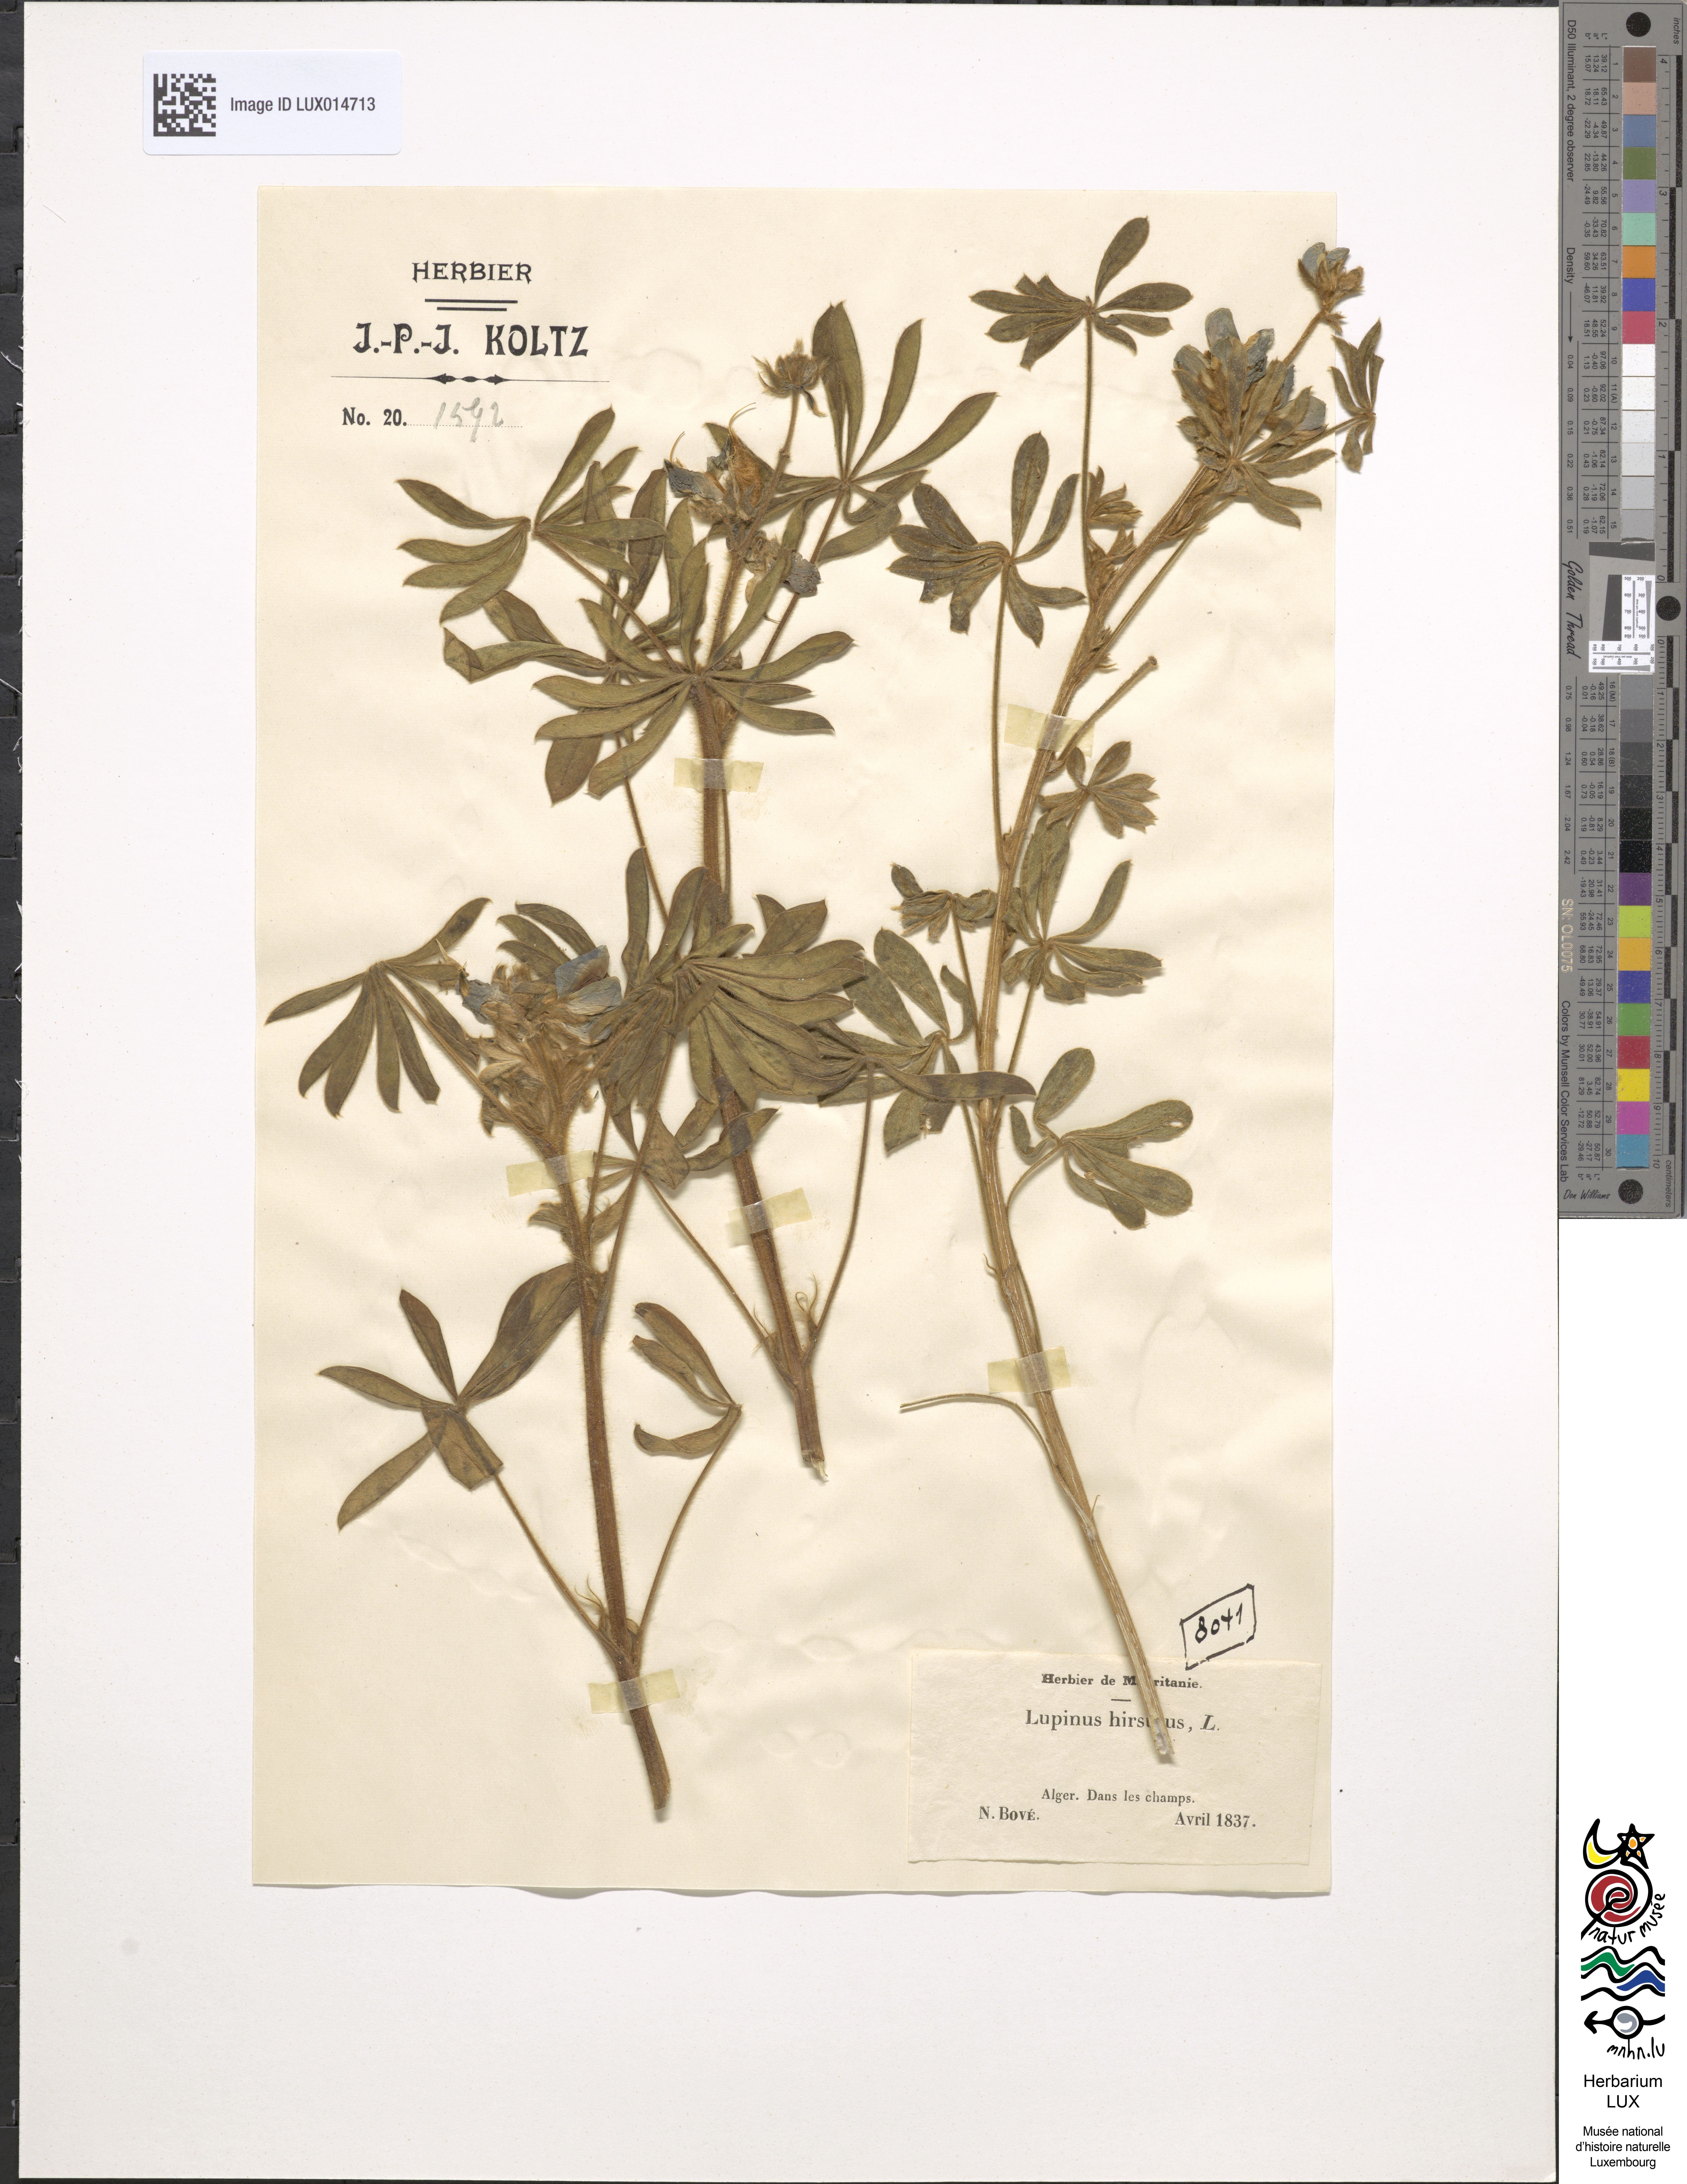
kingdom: Plantae
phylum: Tracheophyta
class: Magnoliopsida
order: Fabales
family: Fabaceae
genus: Lupinus
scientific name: Lupinus pilosus
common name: Blue lupine
